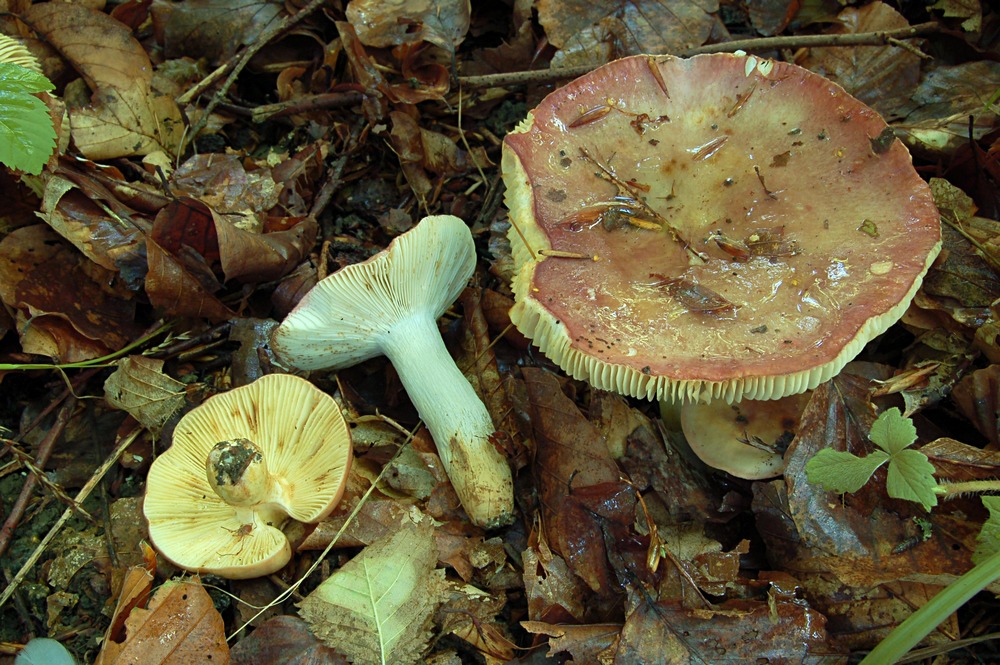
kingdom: Fungi
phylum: Basidiomycota
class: Agaricomycetes
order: Russulales
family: Russulaceae
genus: Russula
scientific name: Russula viscida
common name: knippe-skørhat
